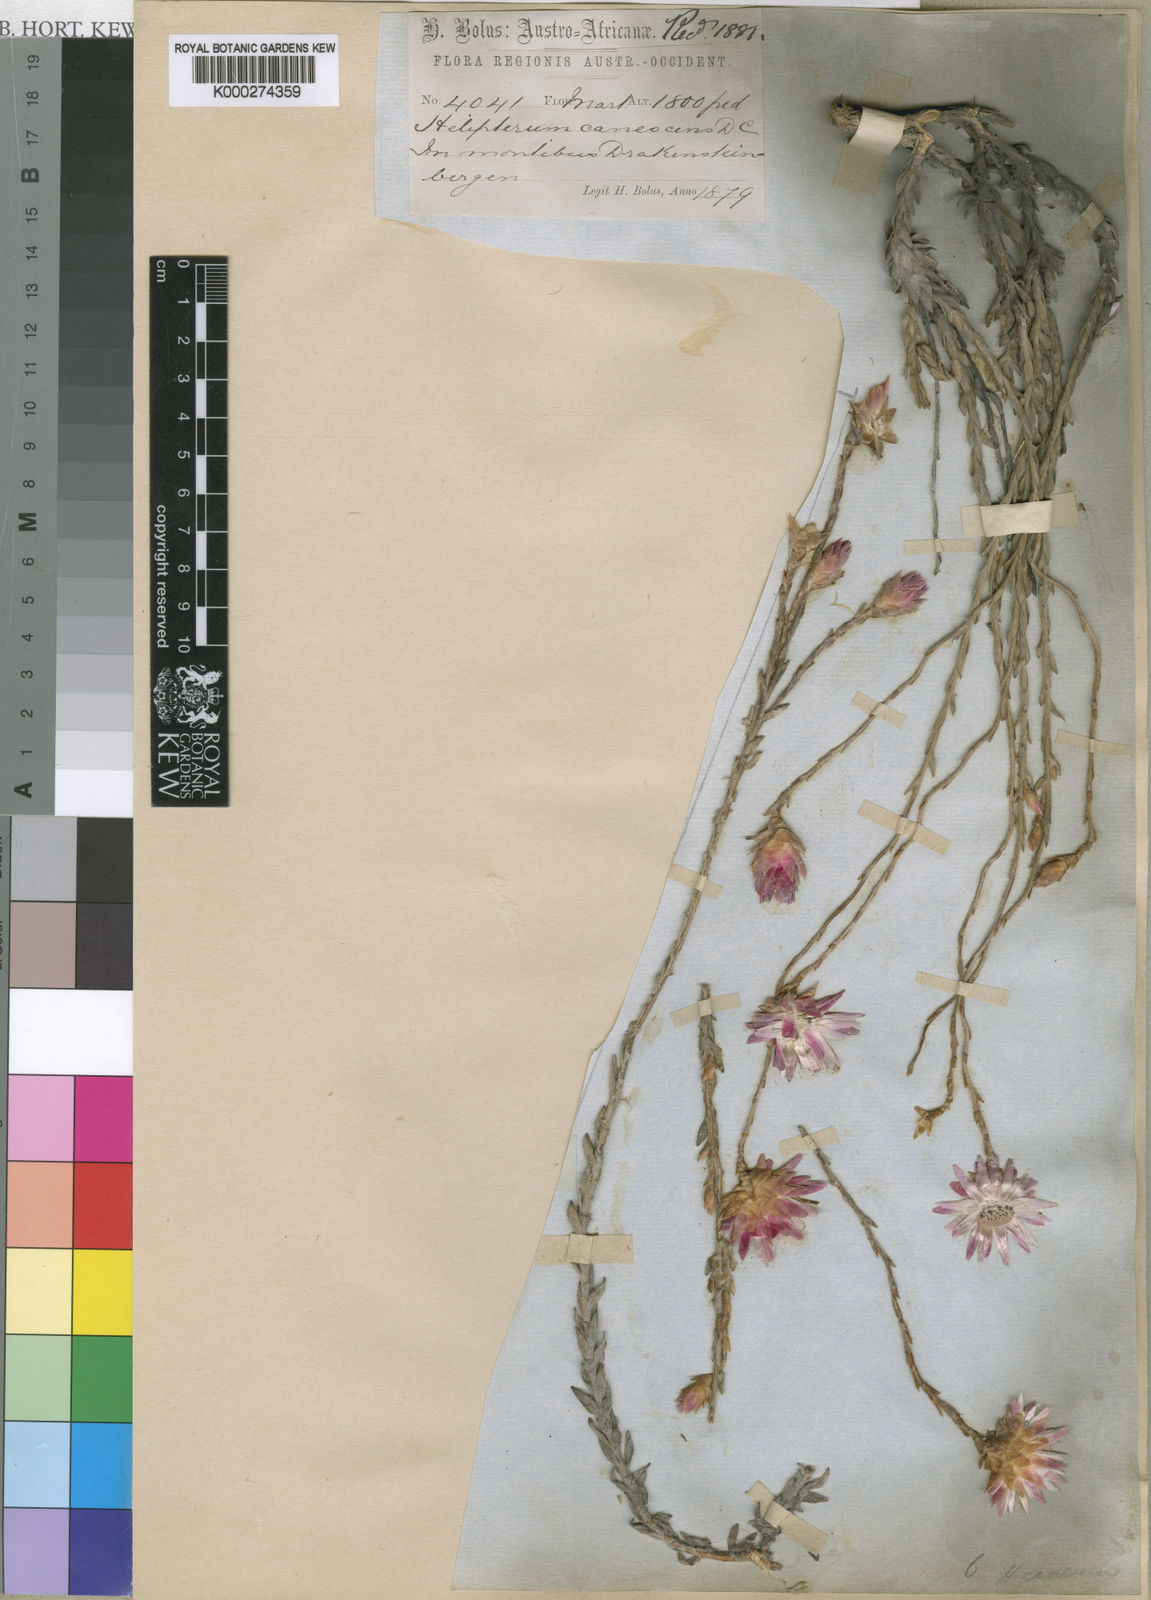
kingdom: Plantae
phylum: Tracheophyta
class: Magnoliopsida
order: Asterales
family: Asteraceae
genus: Syncarpha
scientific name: Syncarpha canescens
